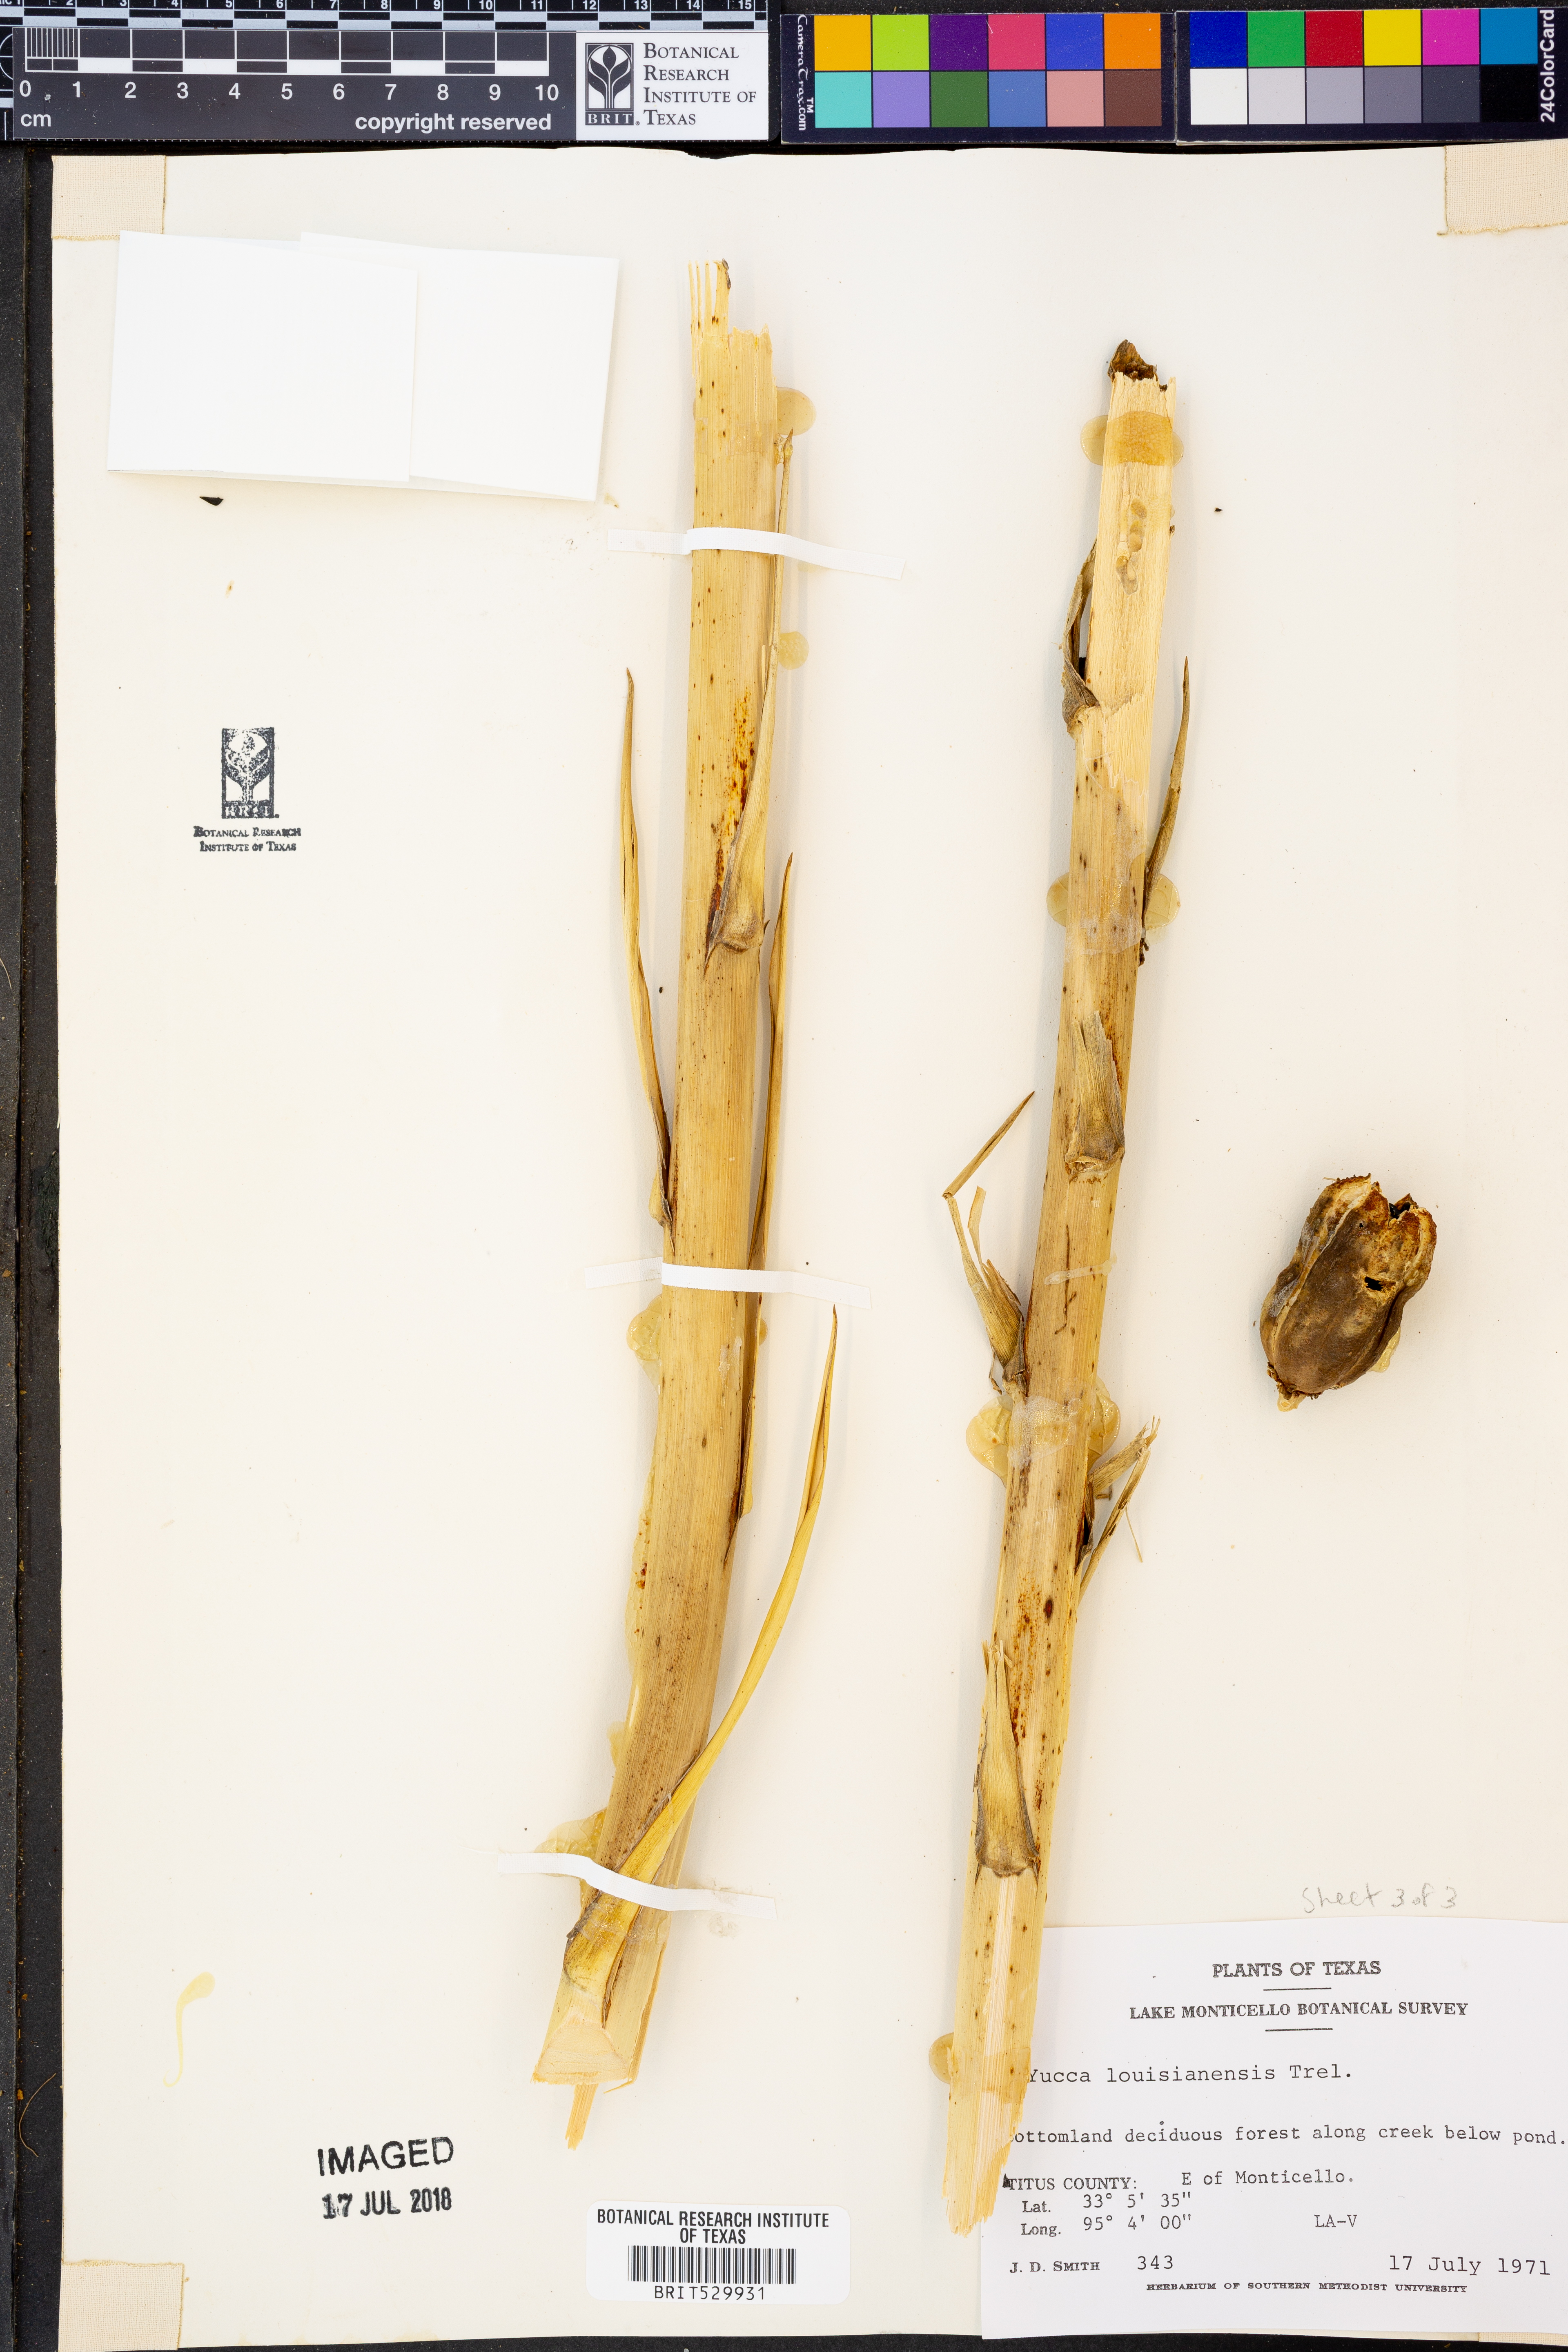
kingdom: Plantae
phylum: Tracheophyta
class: Liliopsida
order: Asparagales
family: Asparagaceae
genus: Yucca
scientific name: Yucca flaccida
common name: Adam's-needle
